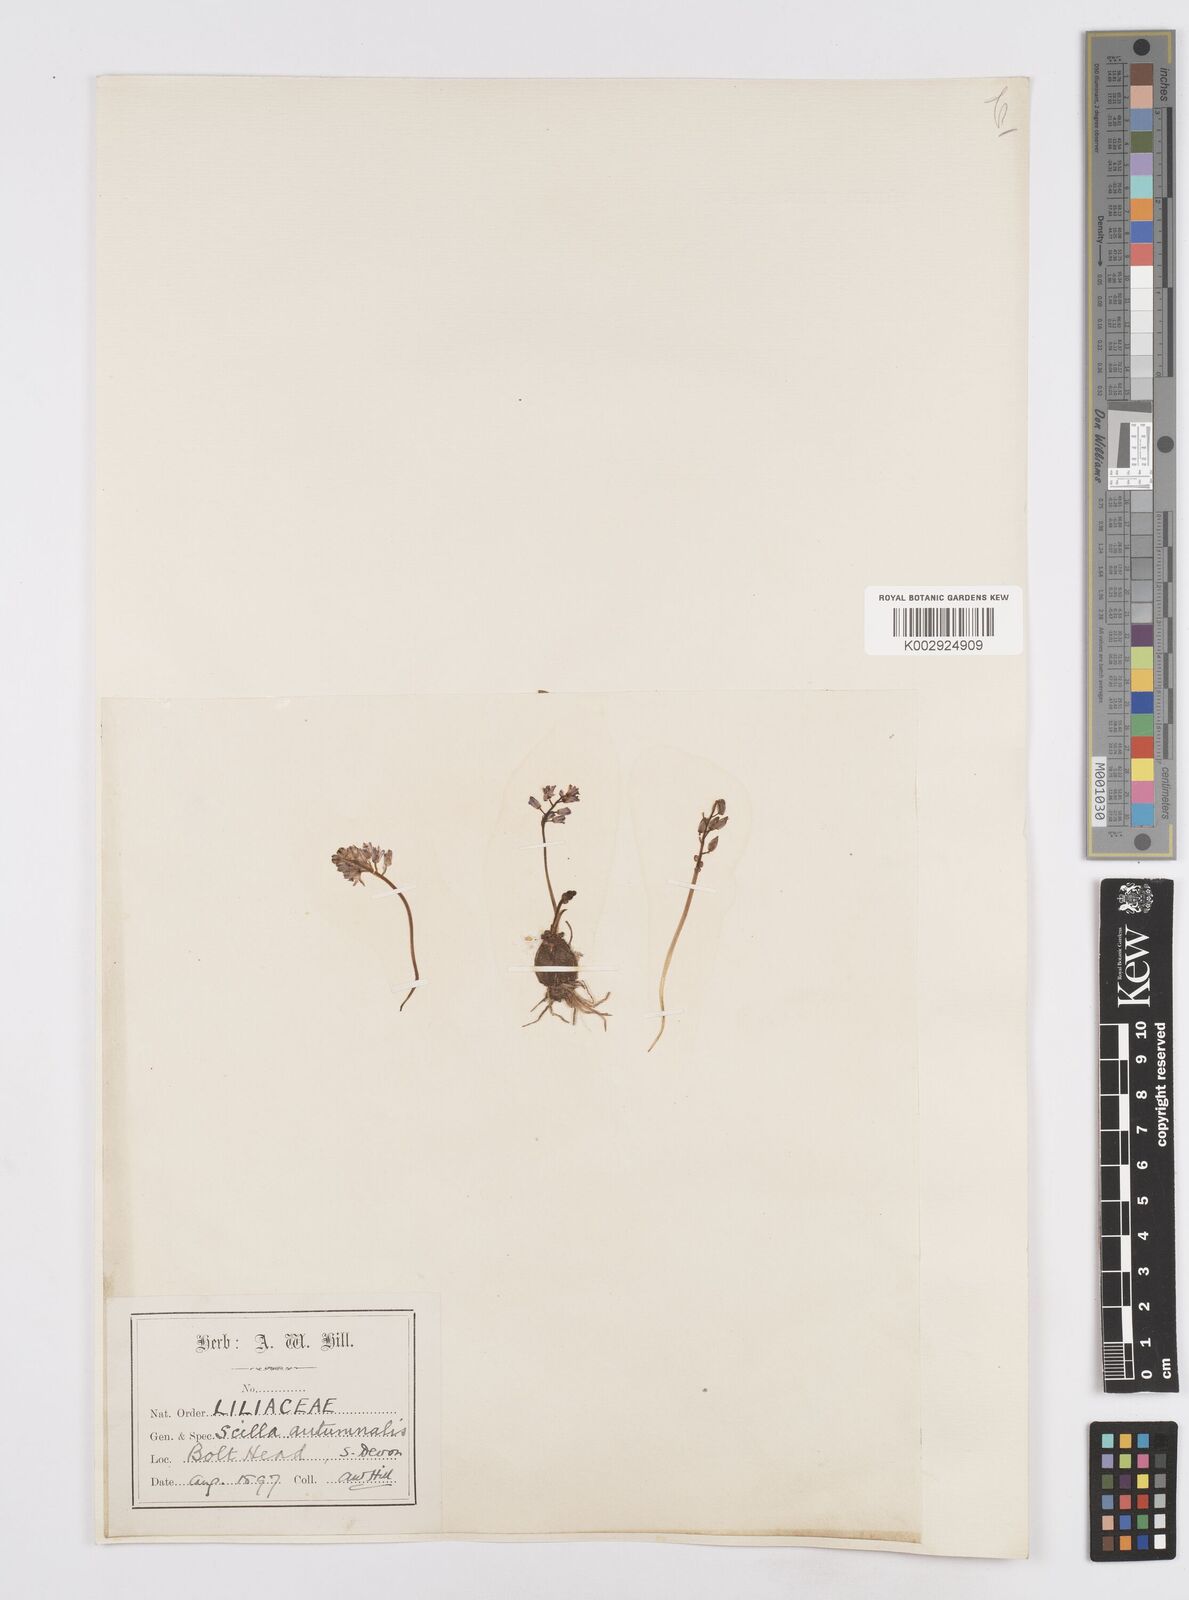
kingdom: Plantae
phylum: Tracheophyta
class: Liliopsida
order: Asparagales
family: Asparagaceae
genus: Prospero
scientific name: Prospero autumnale
